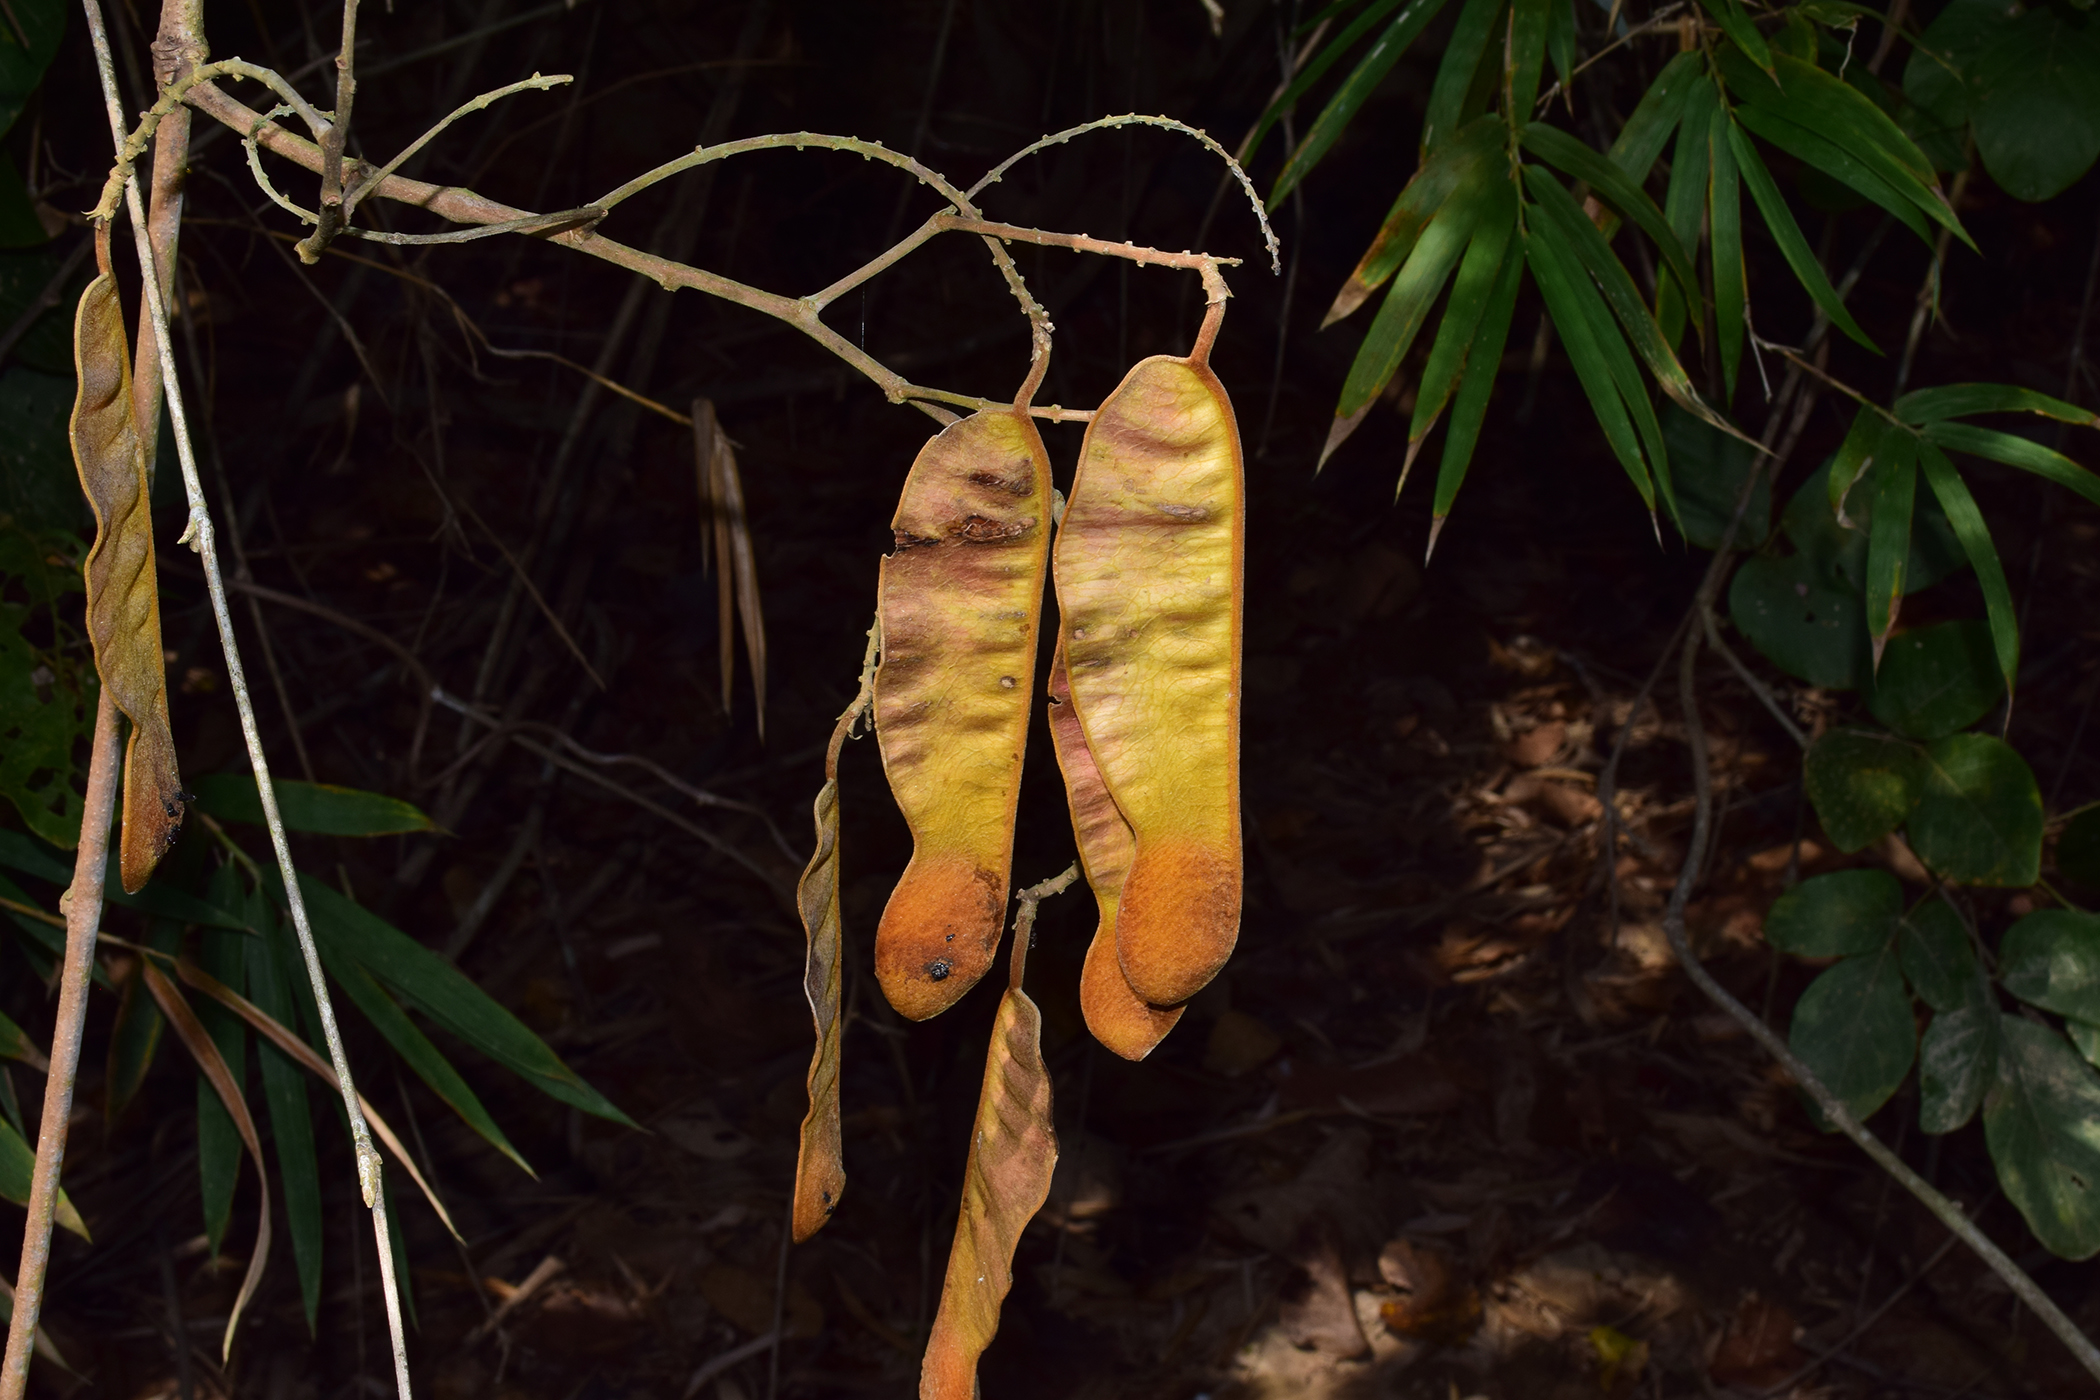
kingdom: Plantae
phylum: Tracheophyta
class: Magnoliopsida
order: Fabales
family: Fabaceae
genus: Spatholobus
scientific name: Spatholobus parviflorus
